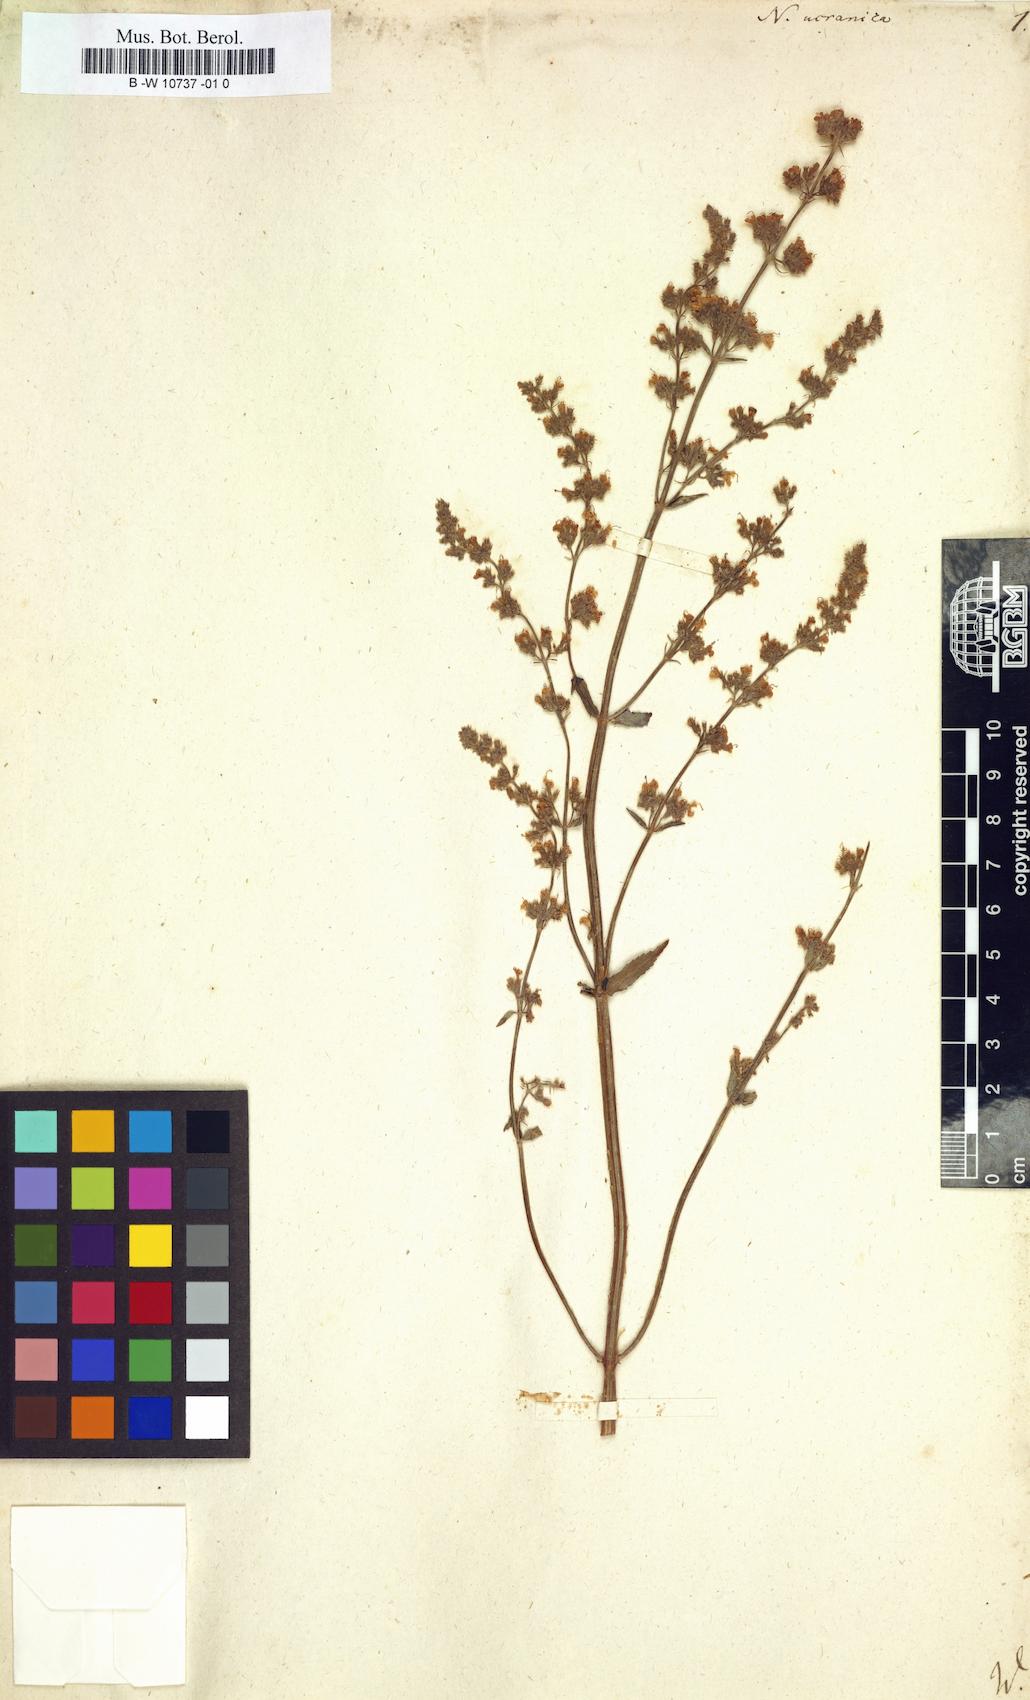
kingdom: Plantae
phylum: Tracheophyta
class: Magnoliopsida
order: Lamiales
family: Lamiaceae
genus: Nepeta
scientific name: Nepeta ucranica
